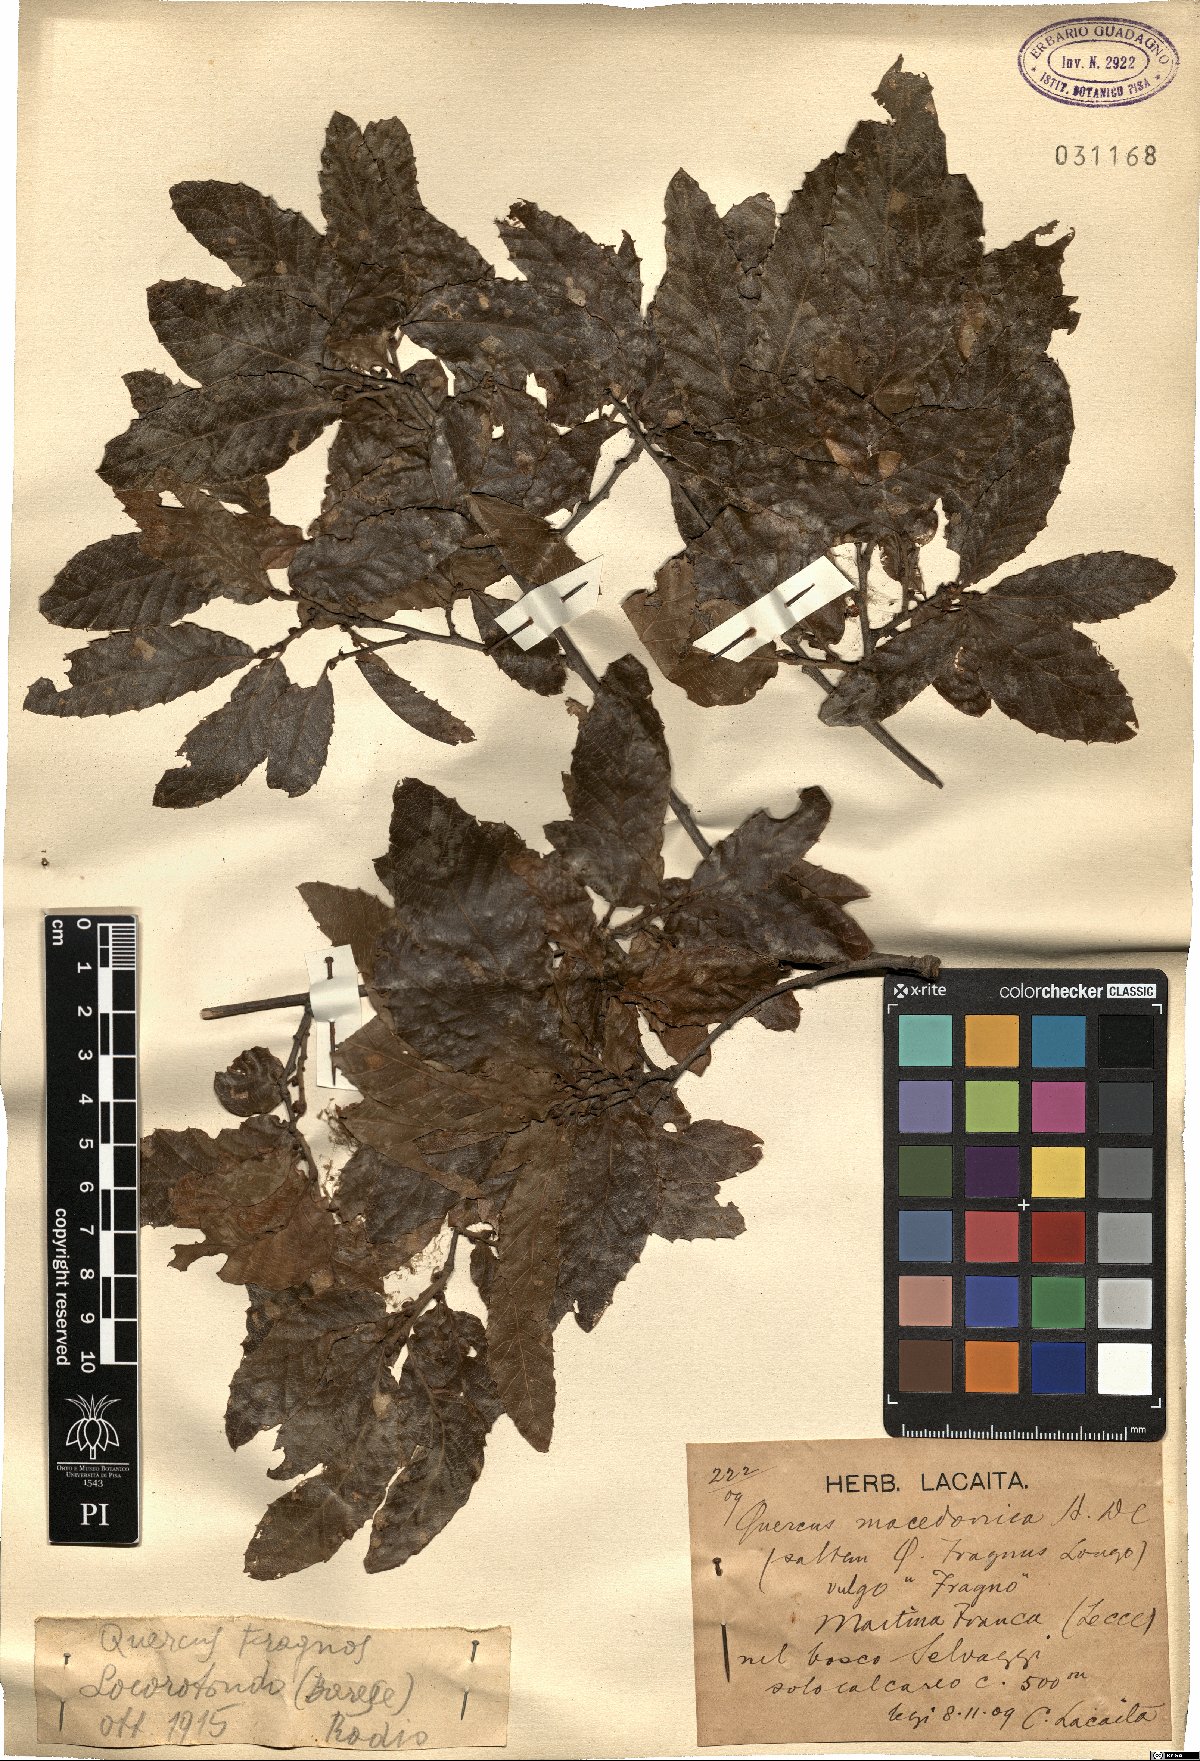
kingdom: Plantae
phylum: Tracheophyta
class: Magnoliopsida
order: Fagales
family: Fagaceae
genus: Quercus
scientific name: Quercus trojana
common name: Macedonian oak
